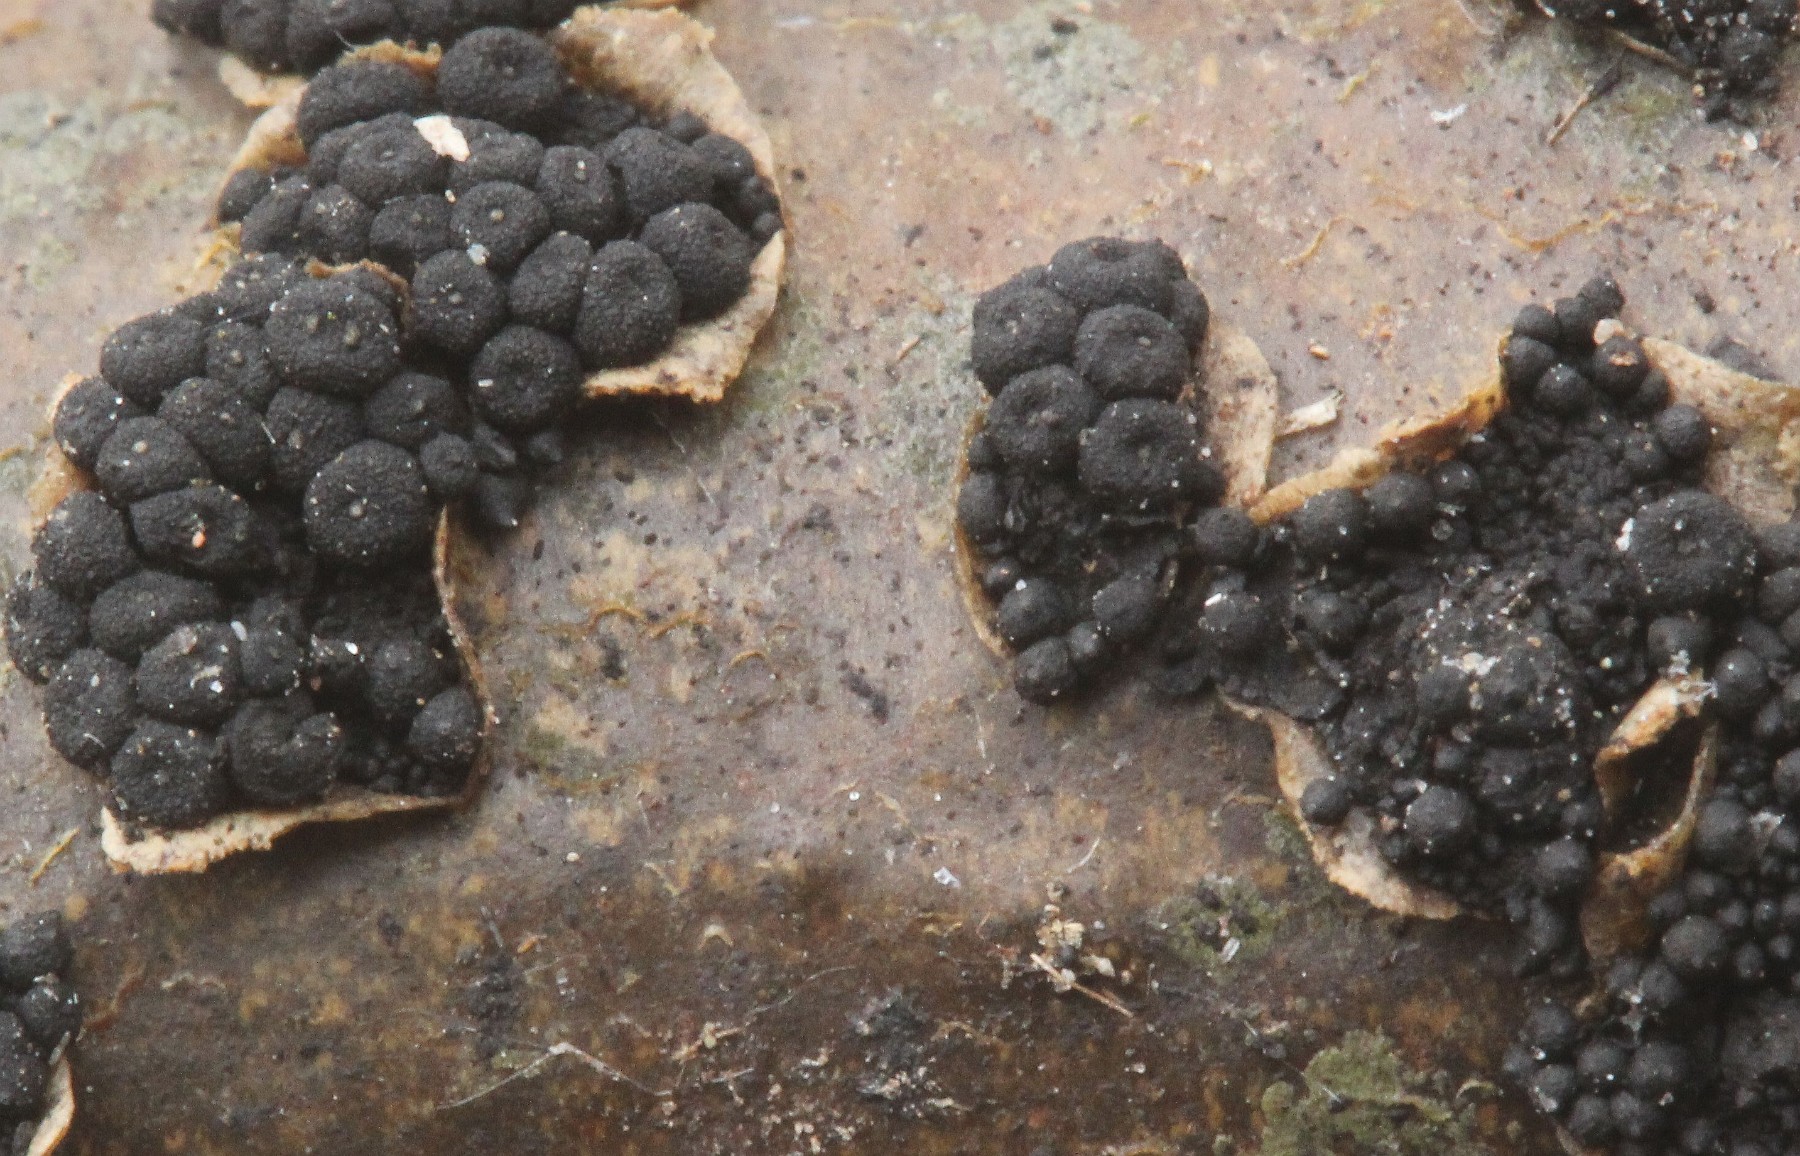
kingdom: Fungi
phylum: Ascomycota
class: Dothideomycetes
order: Pleosporales
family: Camarosporidiellaceae
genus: Camarosporidiella
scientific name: Camarosporidiella laburni
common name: guldregn-tykbær
